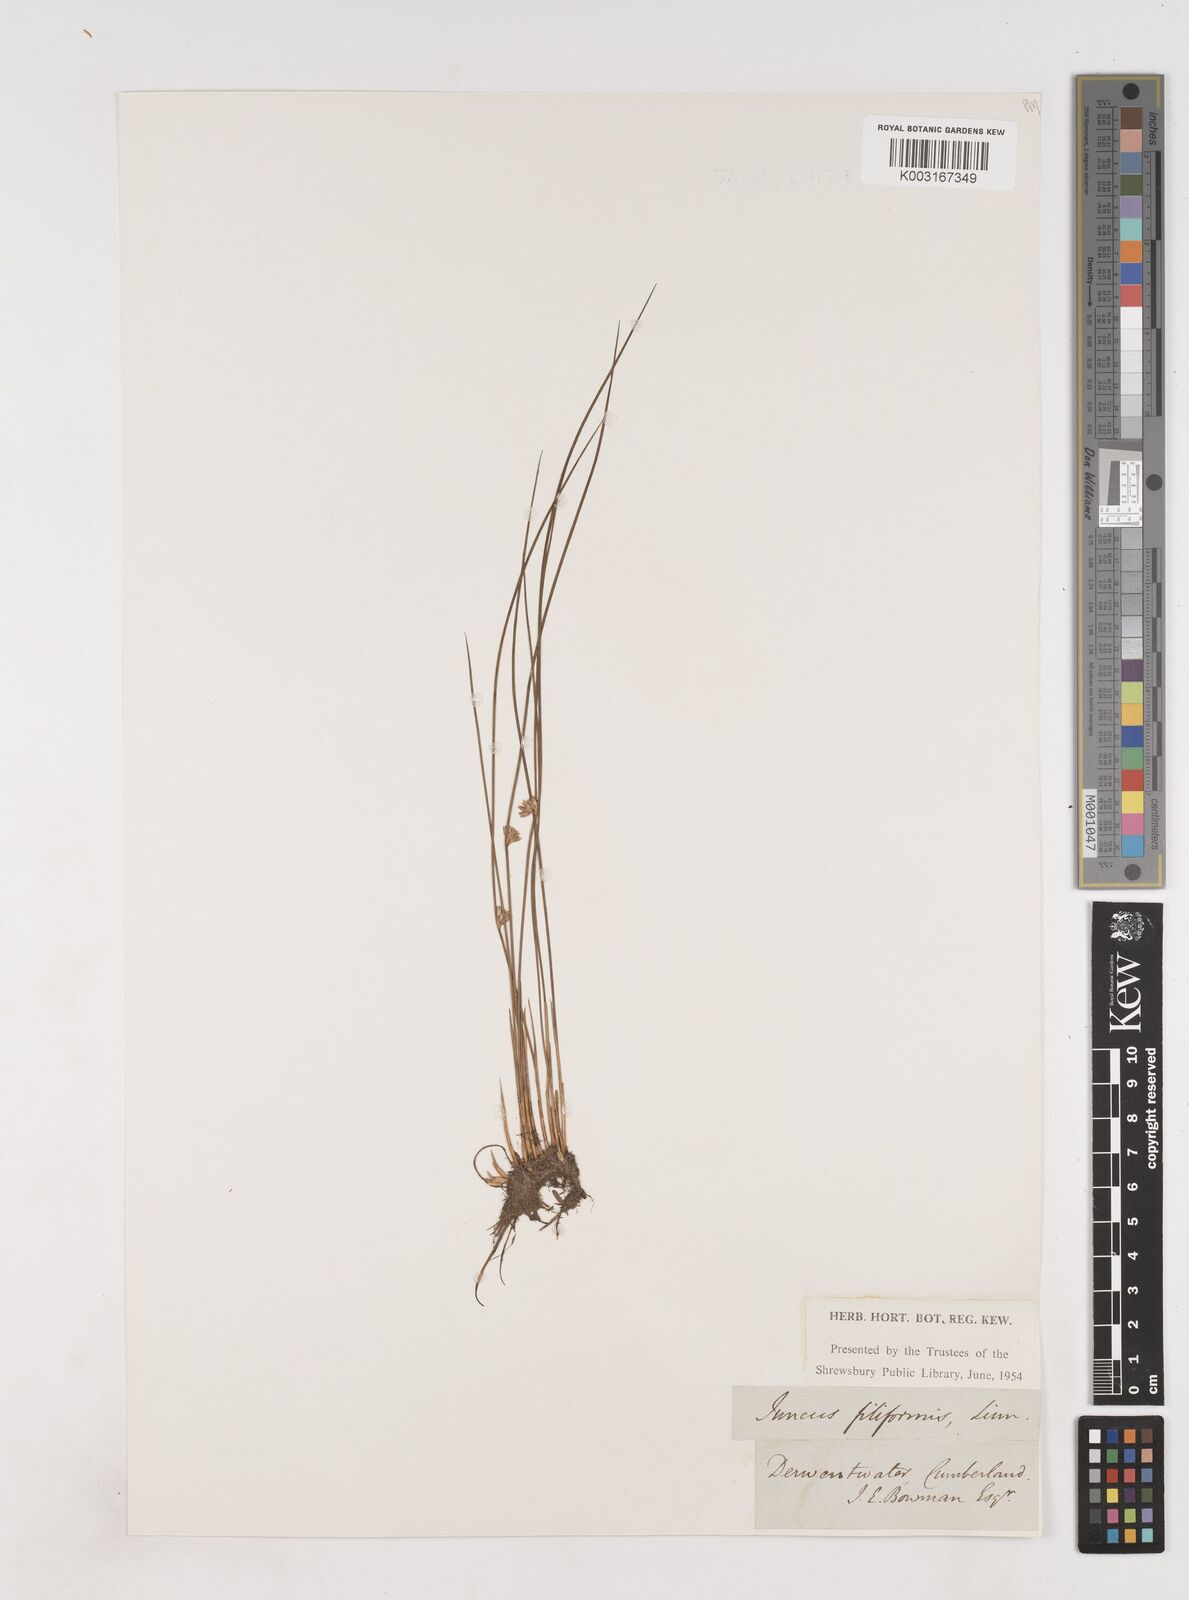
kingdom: Plantae
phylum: Tracheophyta
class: Liliopsida
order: Poales
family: Juncaceae
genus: Juncus
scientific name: Juncus filiformis
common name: Thread rush
